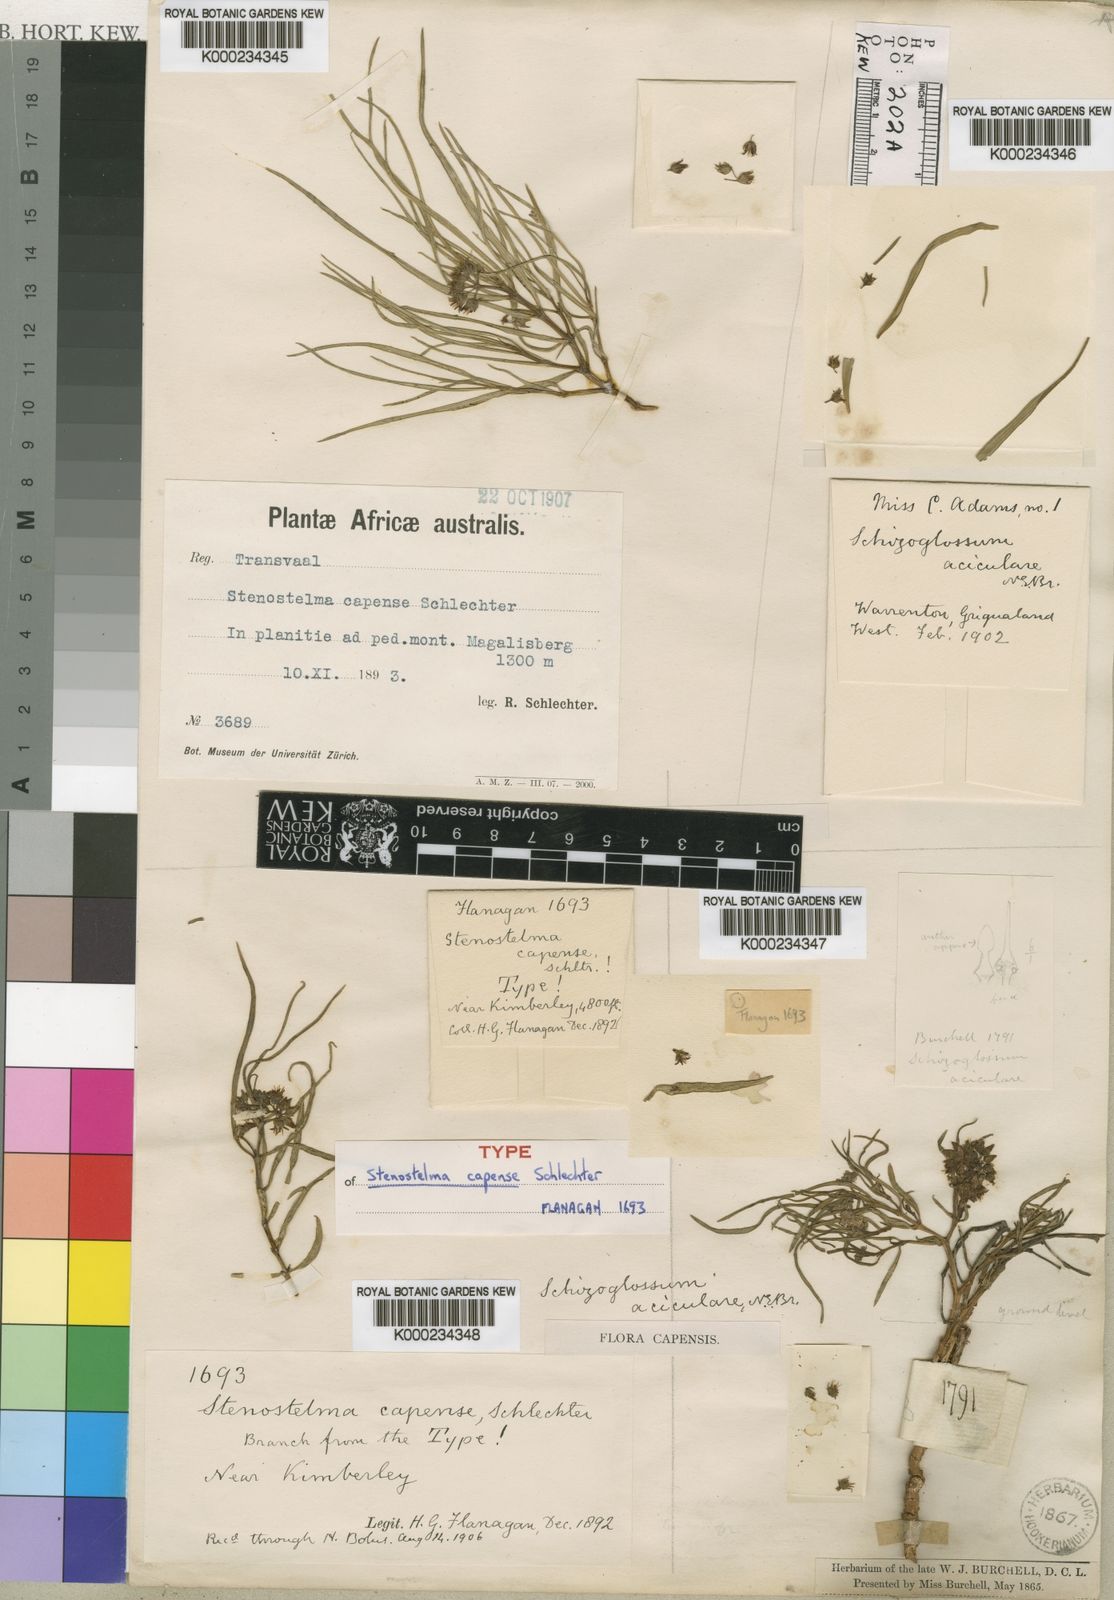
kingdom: Plantae
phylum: Tracheophyta
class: Magnoliopsida
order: Gentianales
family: Apocynaceae
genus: Stenostelma
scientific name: Stenostelma capense
